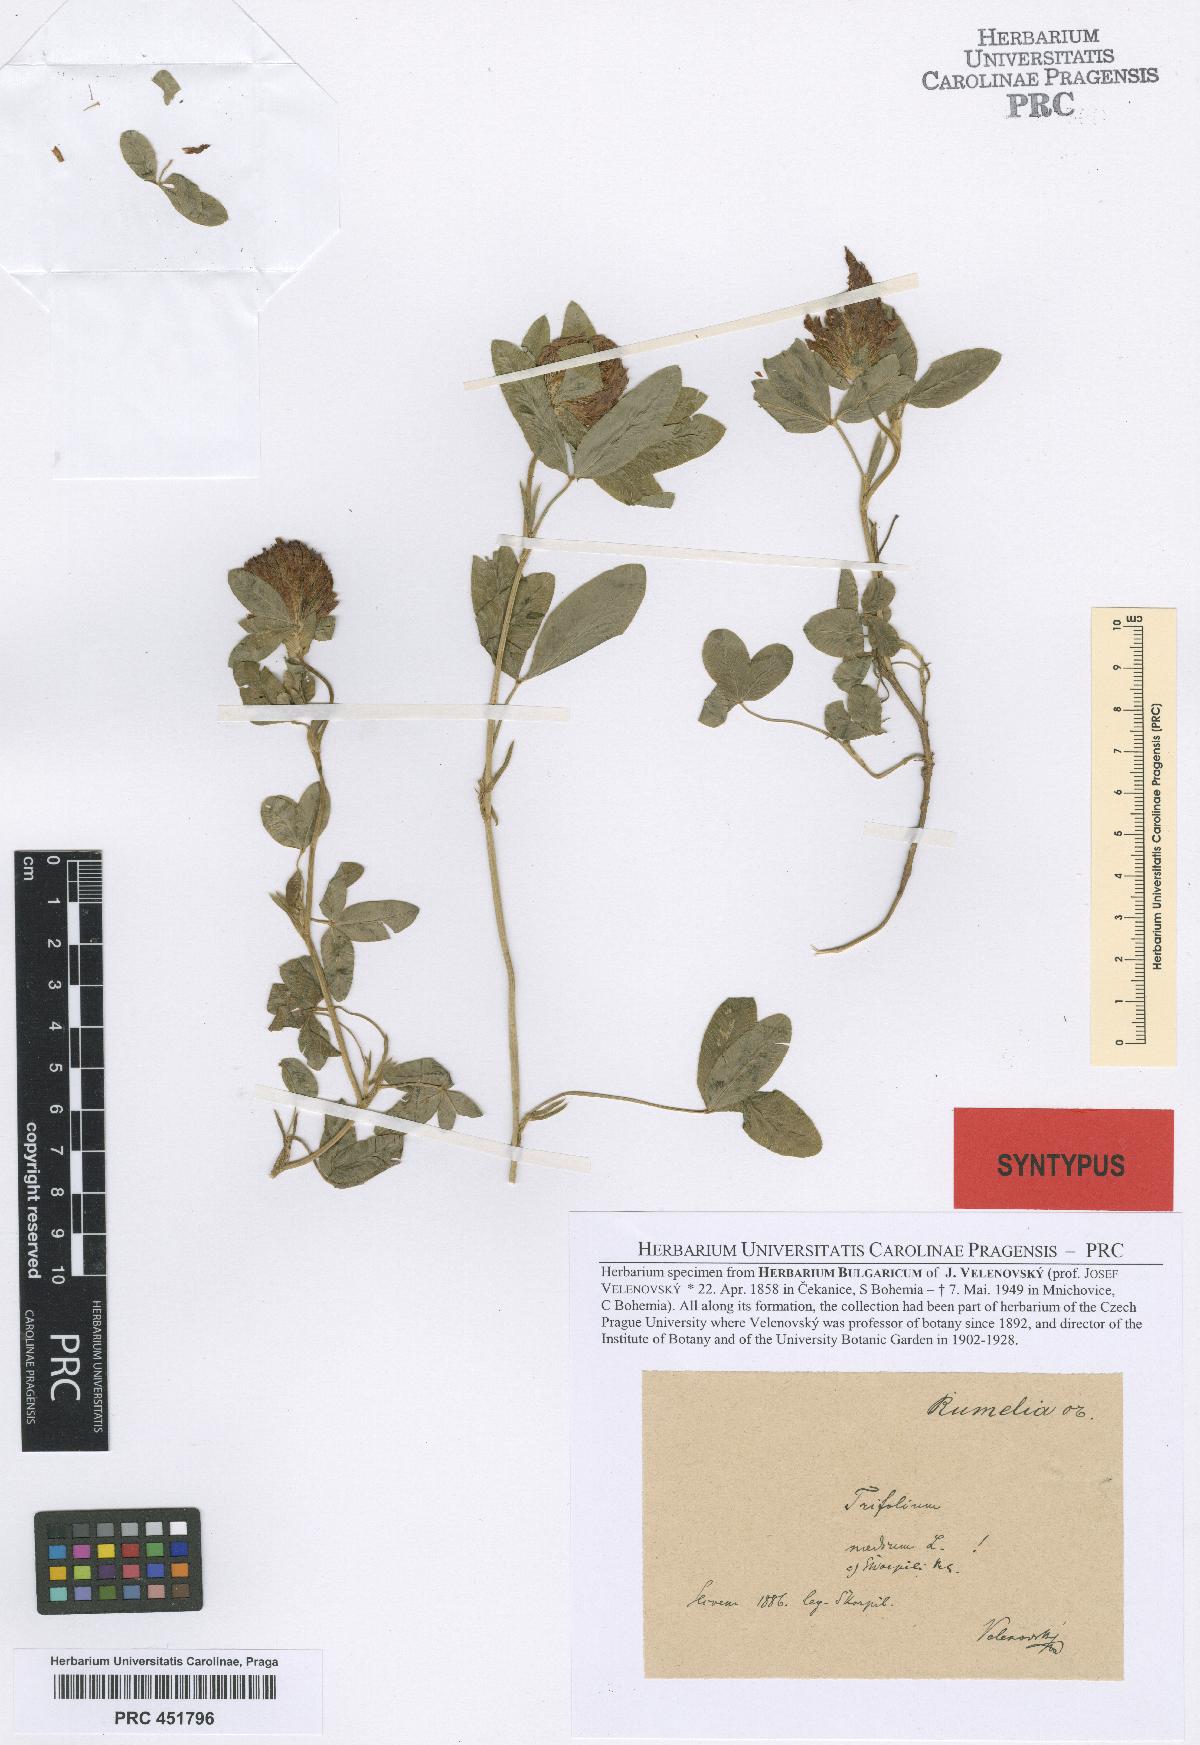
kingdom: Plantae
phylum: Tracheophyta
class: Magnoliopsida
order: Fabales
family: Fabaceae
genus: Trifolium
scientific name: Trifolium medium
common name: Zigzag clover
